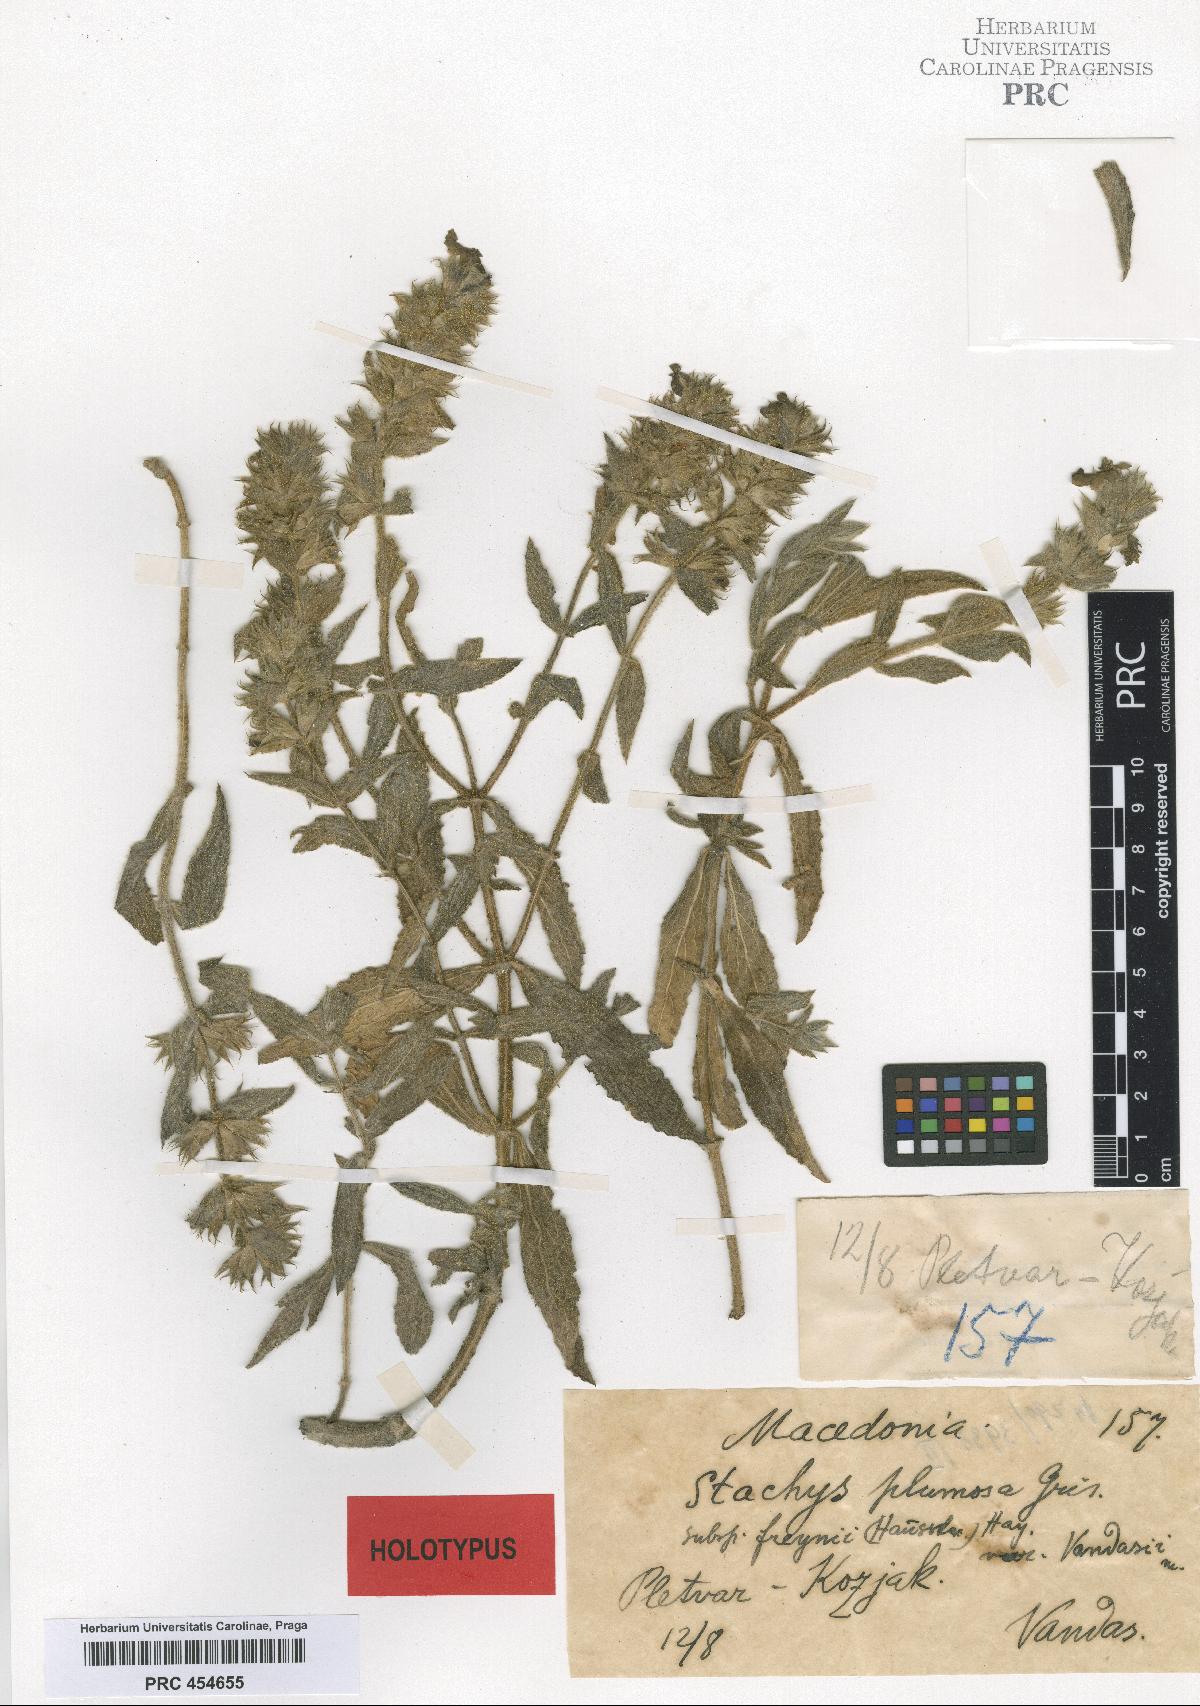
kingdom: Plantae
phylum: Tracheophyta
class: Magnoliopsida
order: Lamiales
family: Lamiaceae
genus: Stachys
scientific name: Stachys plumosa
